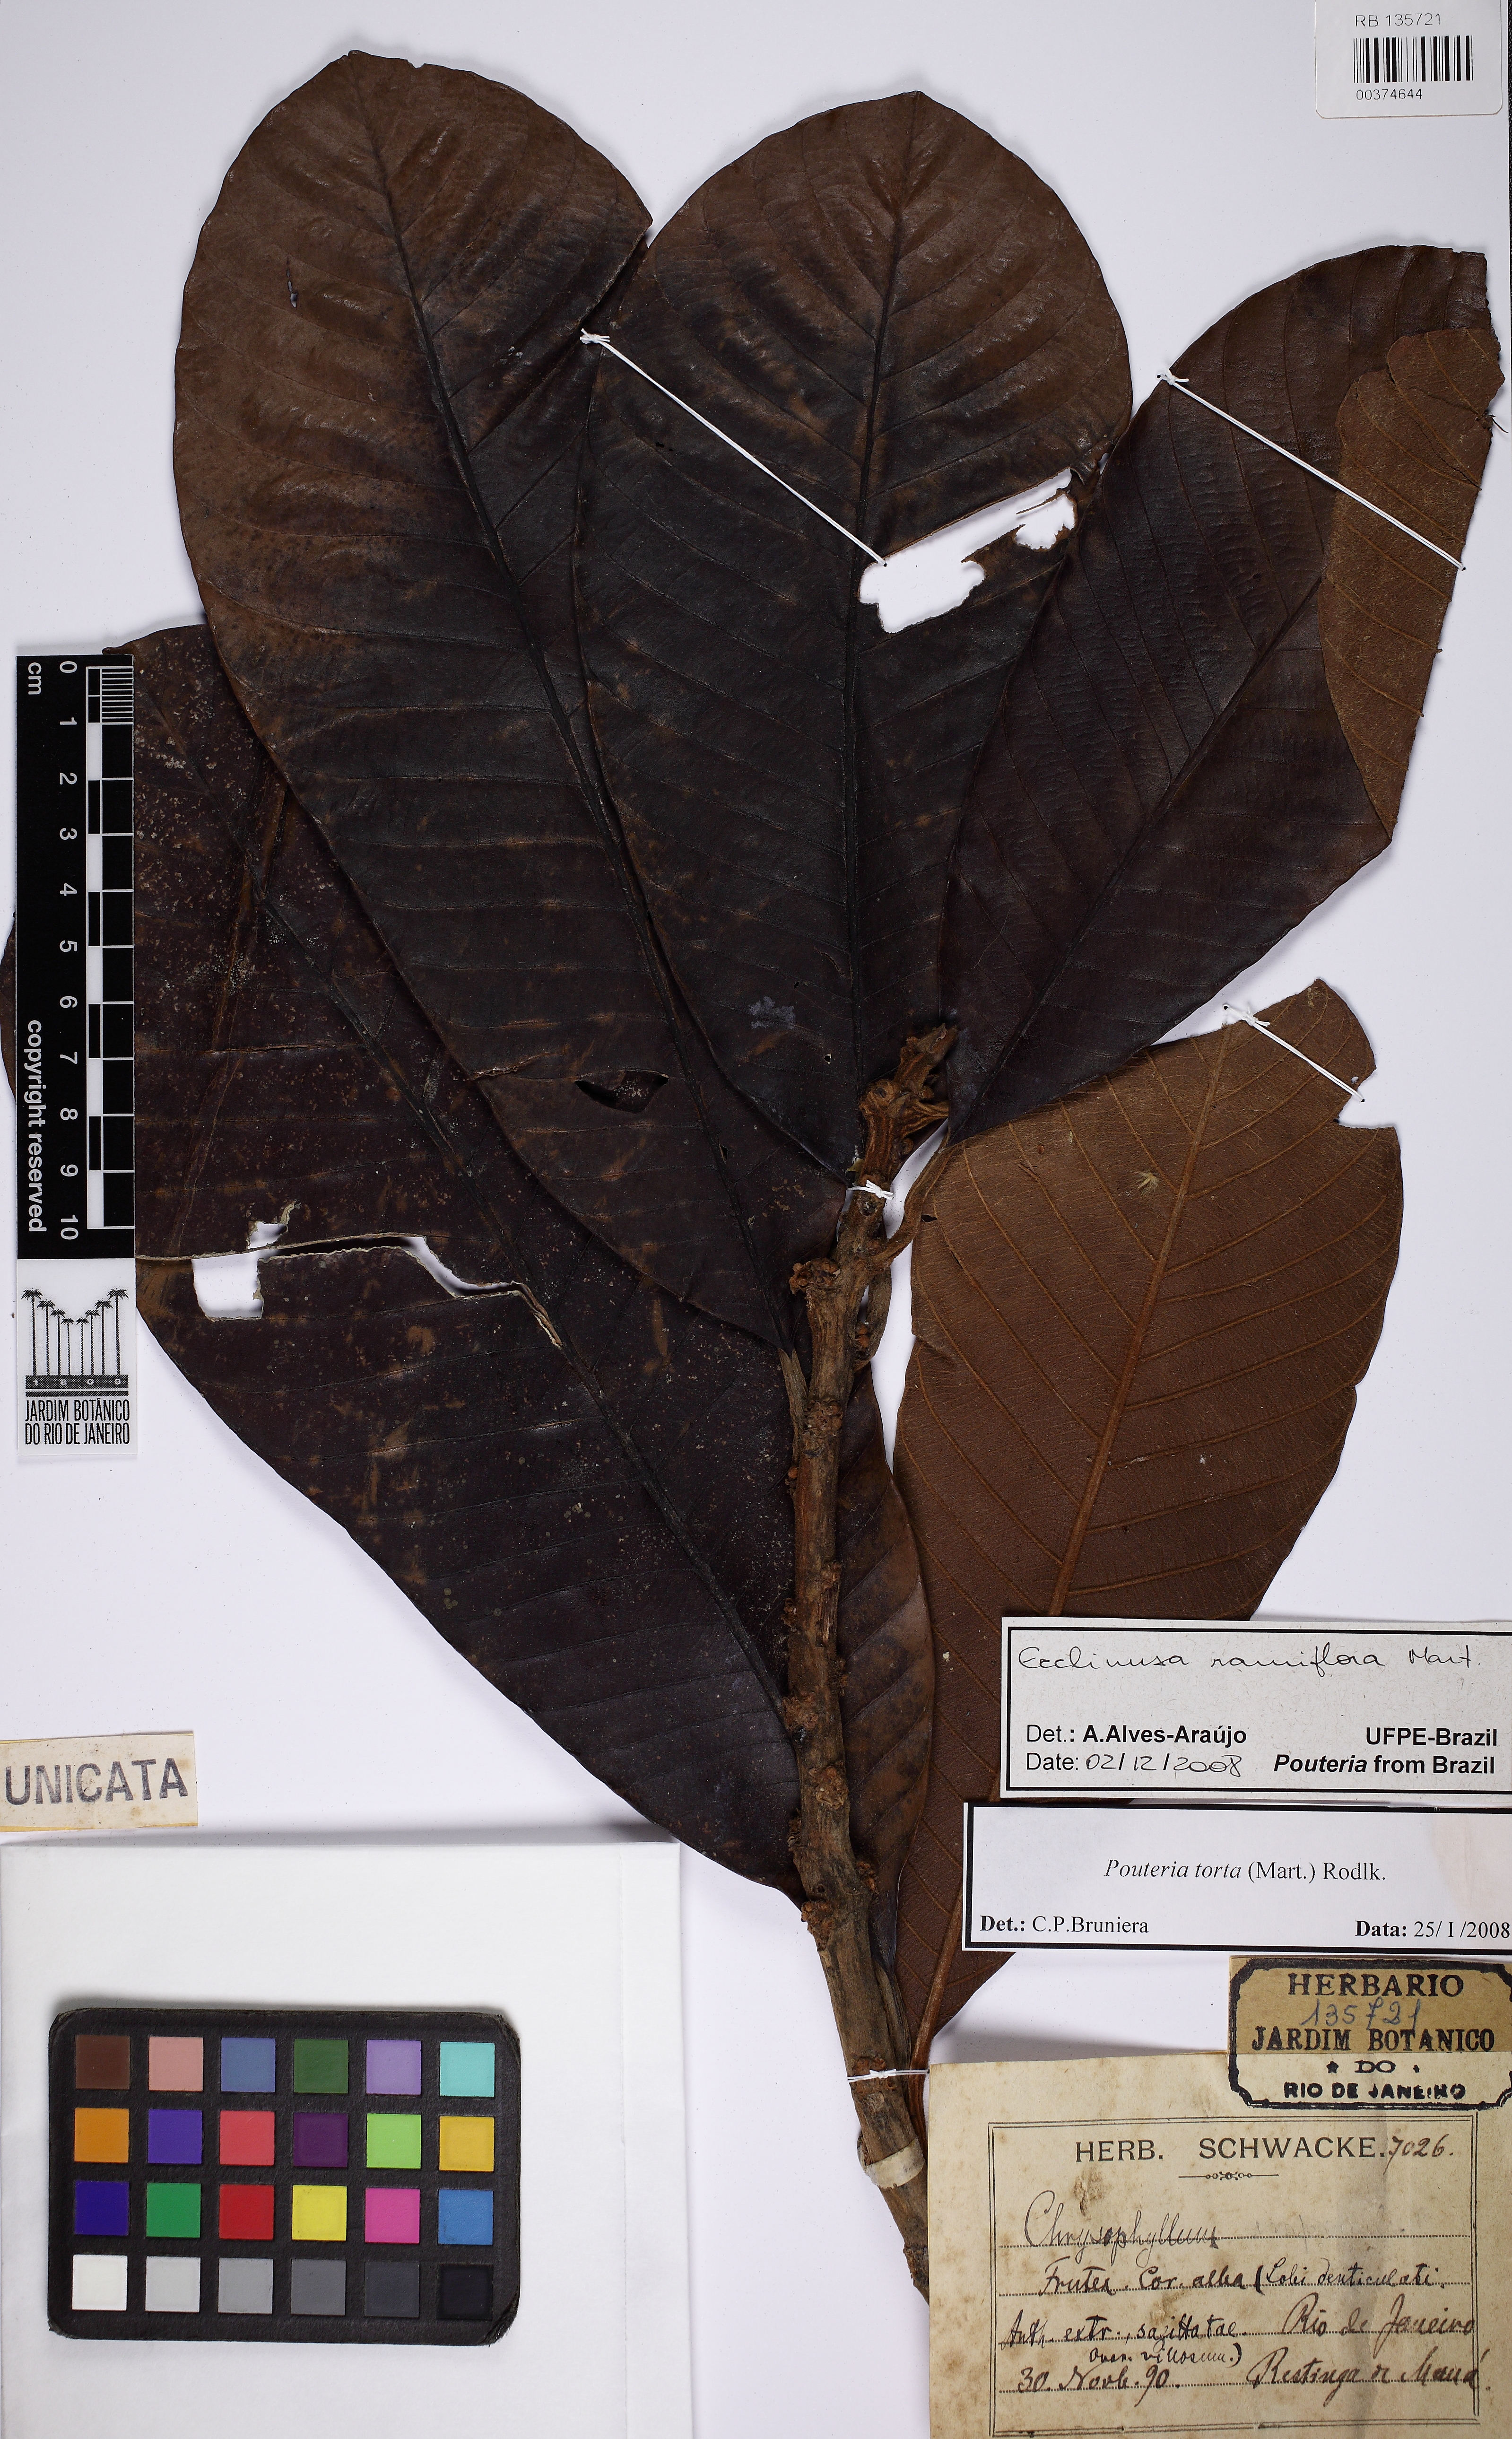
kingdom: Plantae
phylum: Tracheophyta
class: Magnoliopsida
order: Ericales
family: Sapotaceae
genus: Ecclinusa
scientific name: Ecclinusa ramiflora
